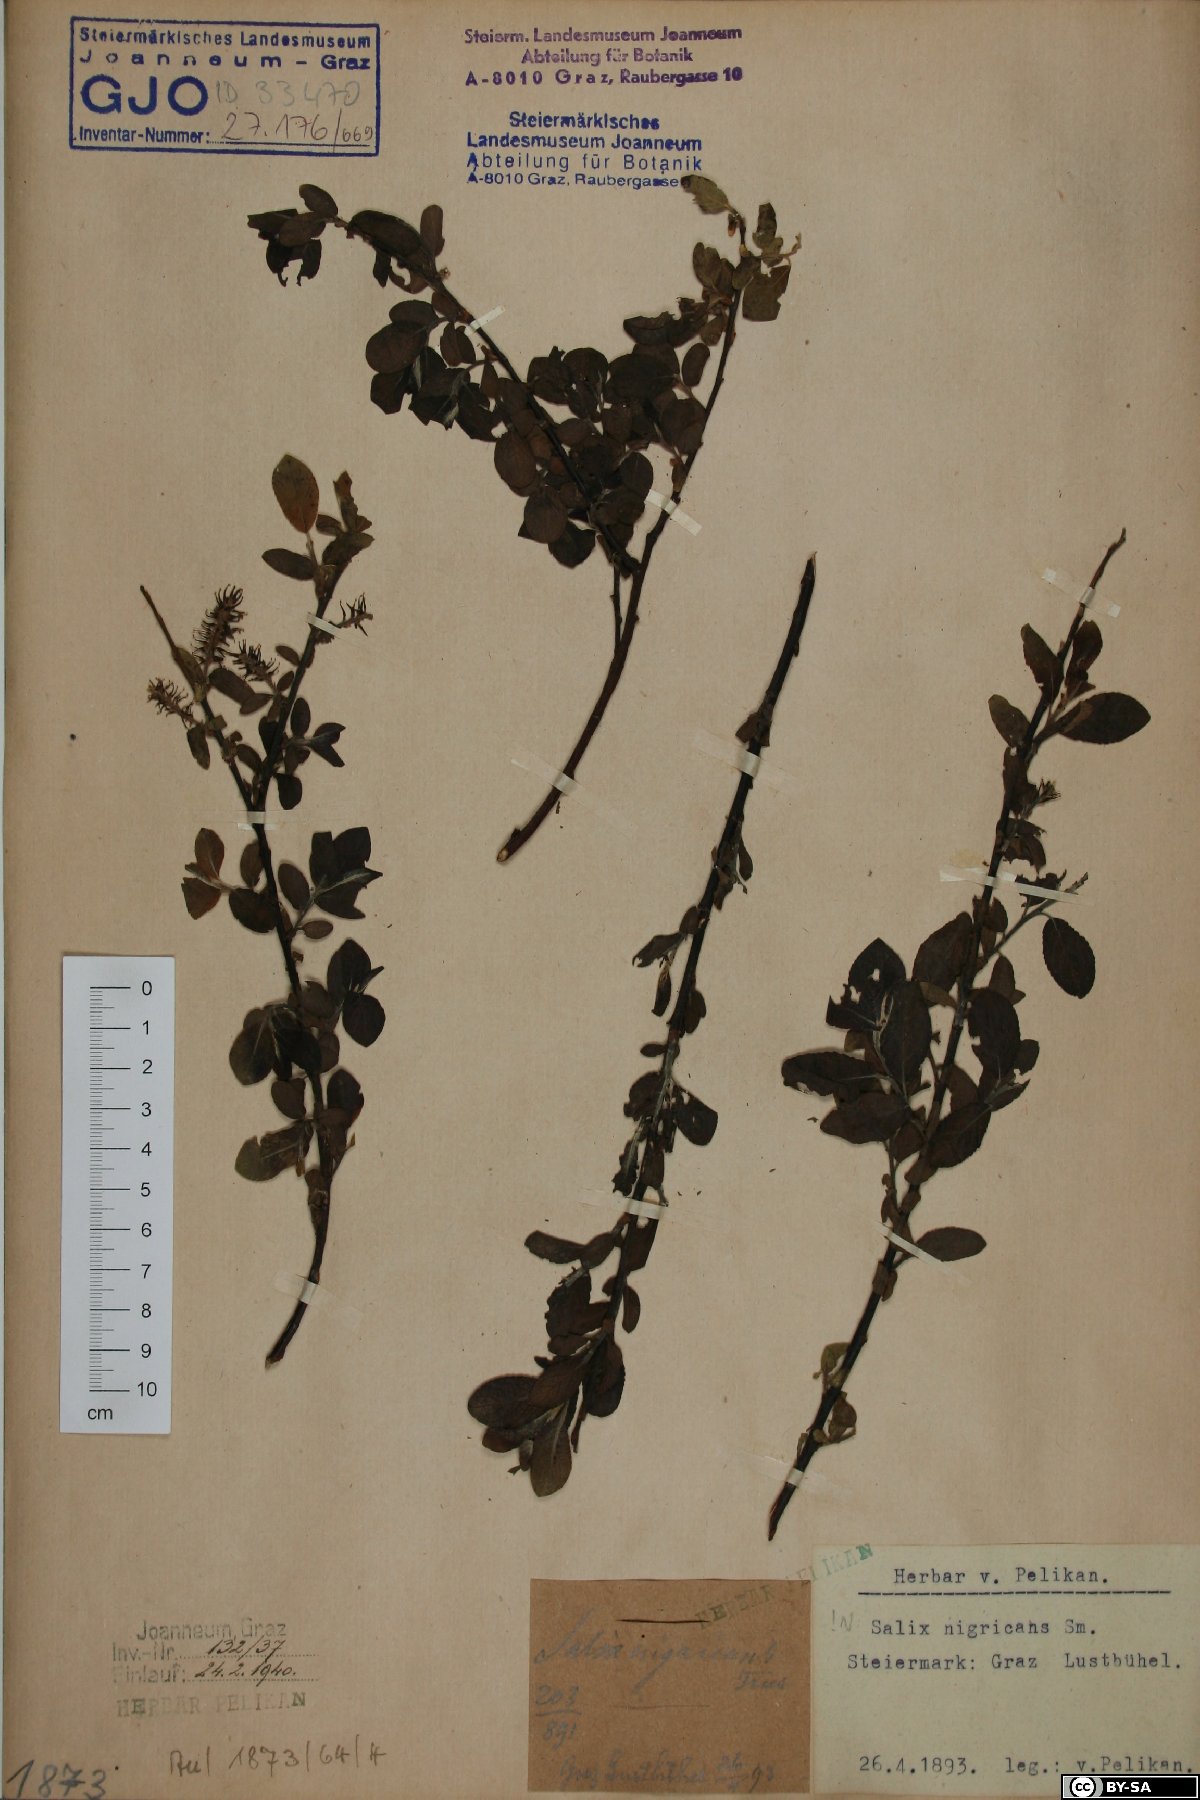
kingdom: Plantae
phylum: Tracheophyta
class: Magnoliopsida
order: Malpighiales
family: Salicaceae
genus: Salix
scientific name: Salix myrsinifolia
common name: Dark-leaved willow
